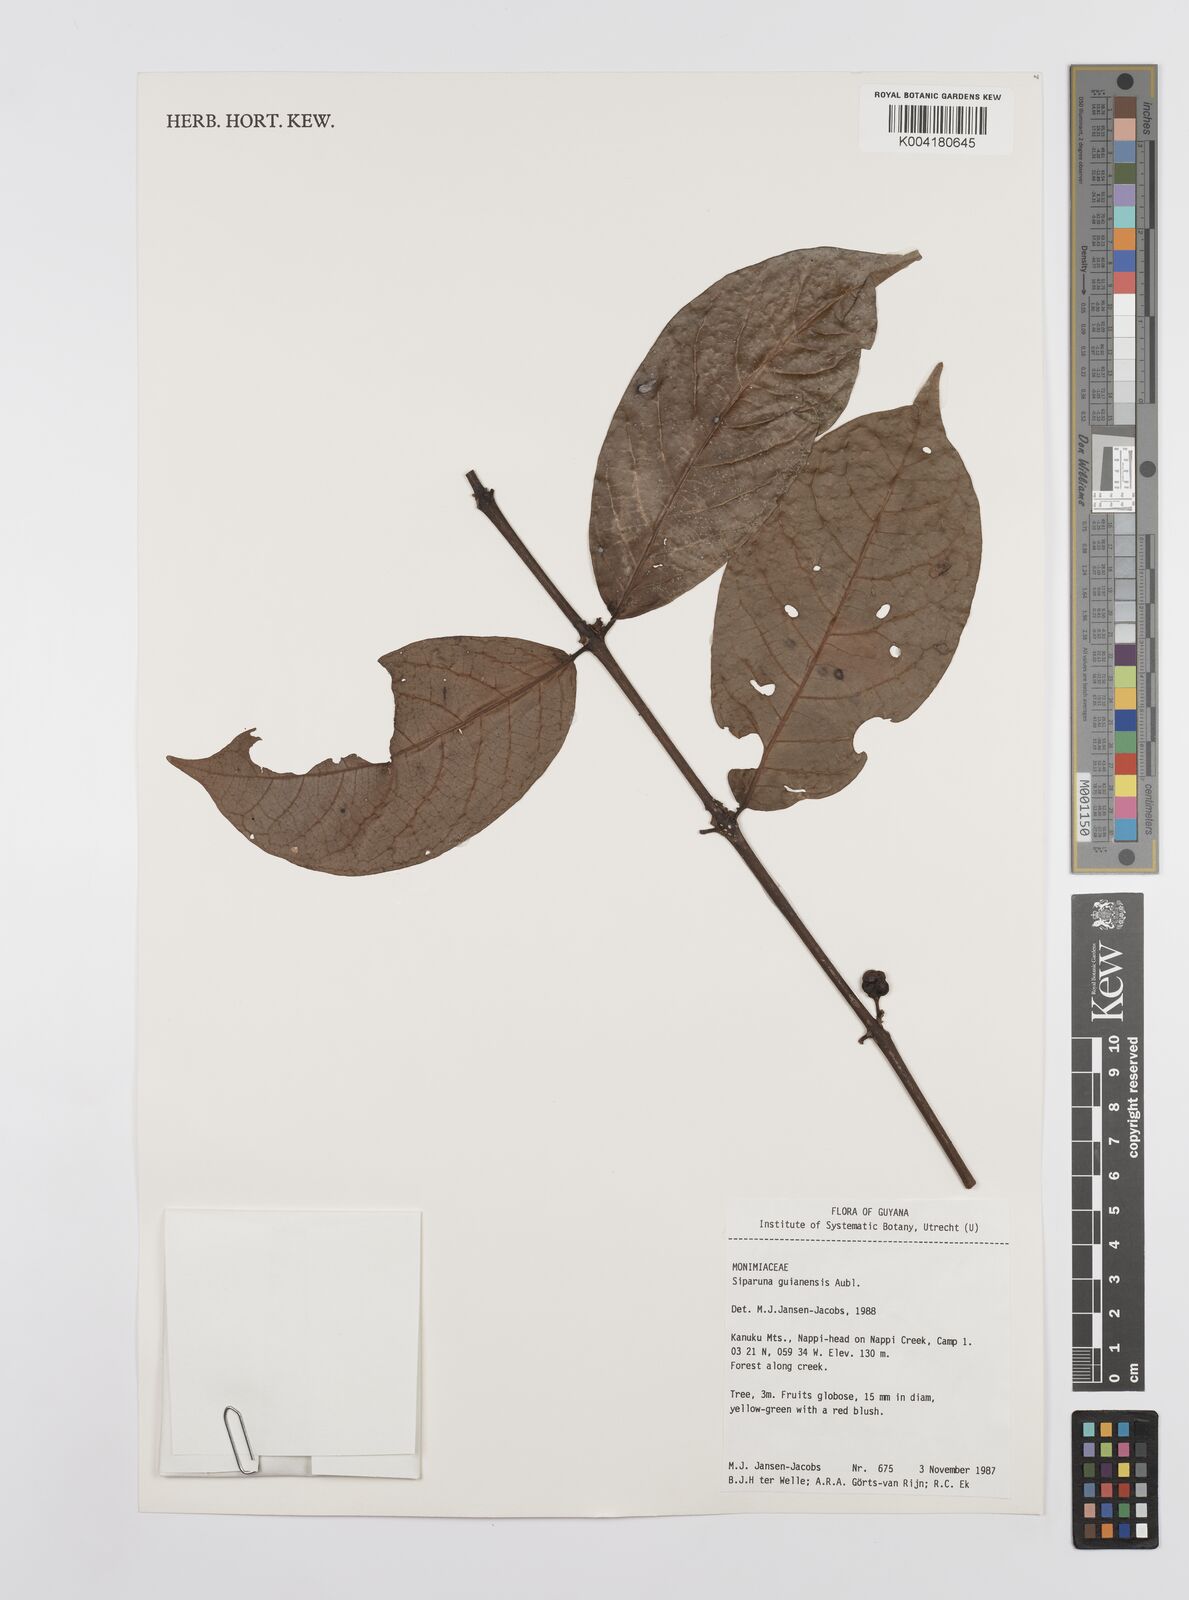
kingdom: Plantae
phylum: Tracheophyta
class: Magnoliopsida
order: Laurales
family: Siparunaceae
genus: Siparuna
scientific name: Siparuna guianensis
